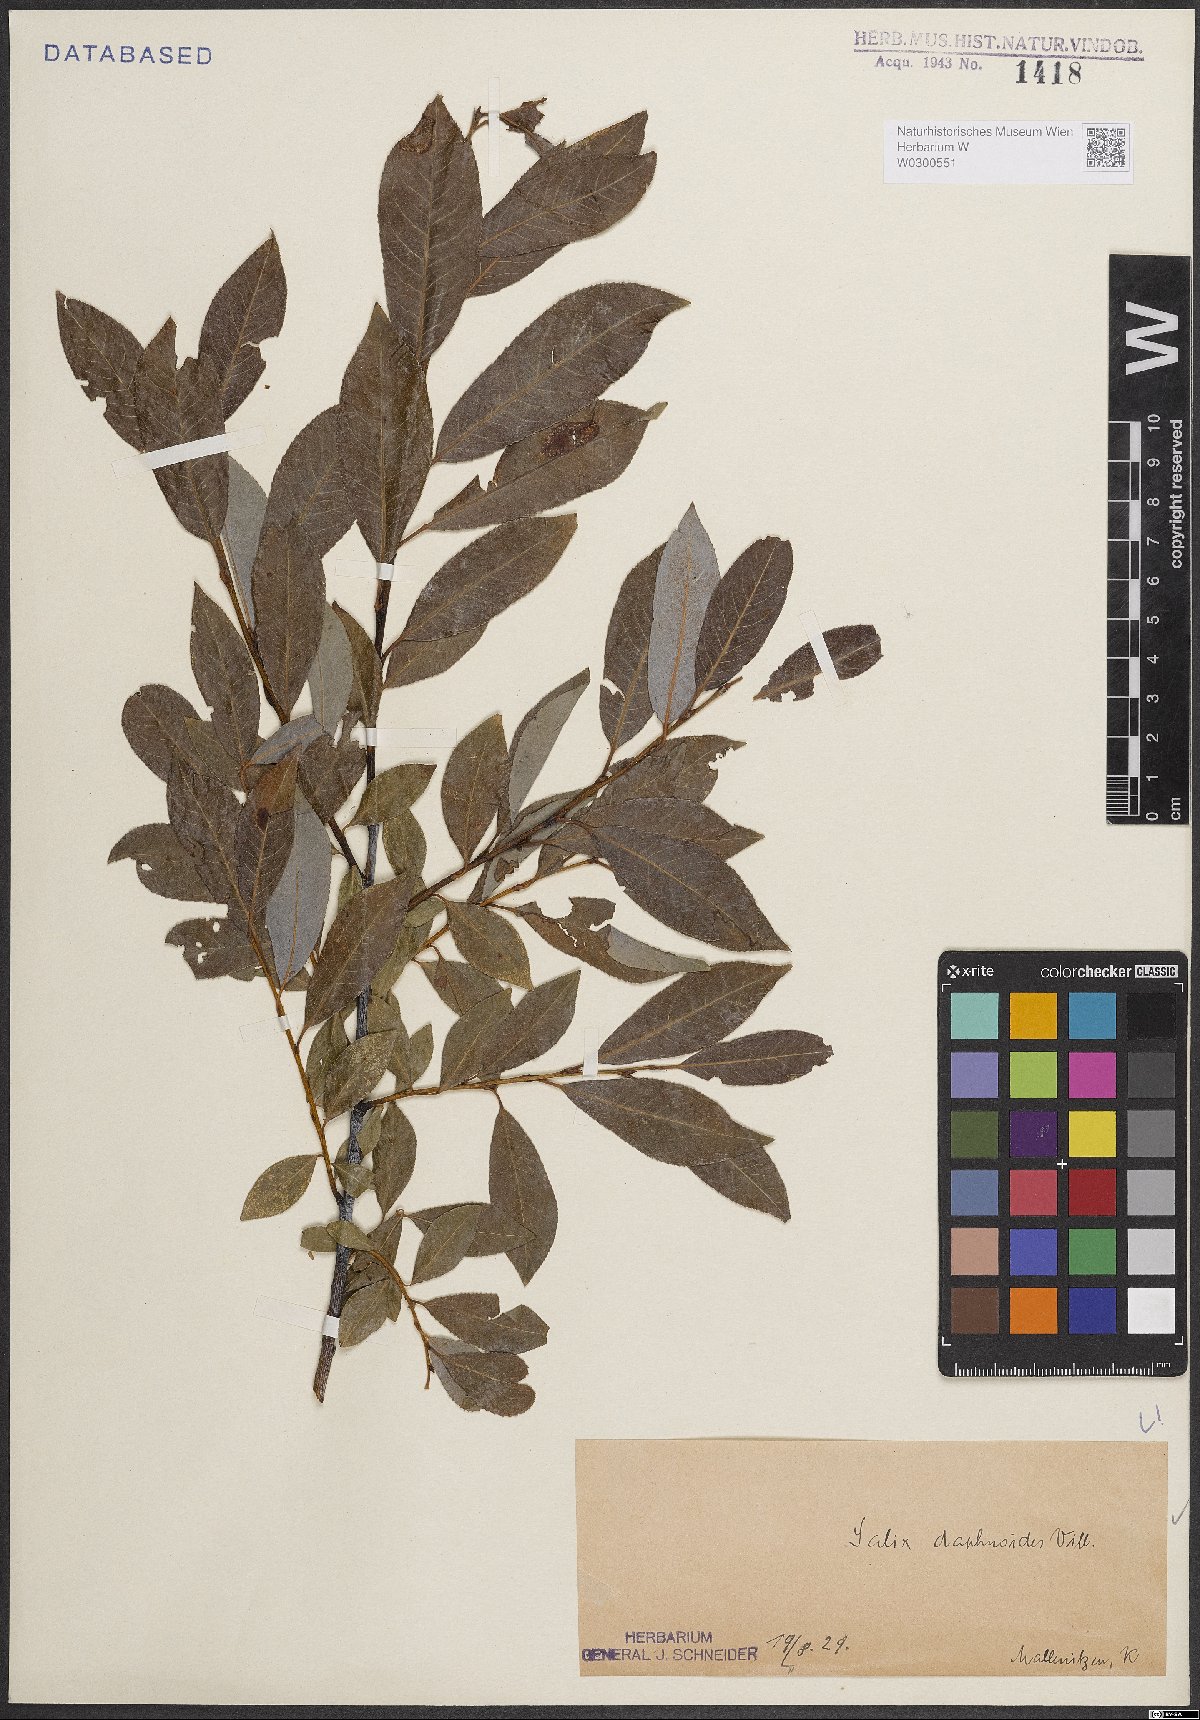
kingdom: Plantae
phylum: Tracheophyta
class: Magnoliopsida
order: Malpighiales
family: Salicaceae
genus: Salix
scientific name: Salix daphnoides
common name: European violet-willow
